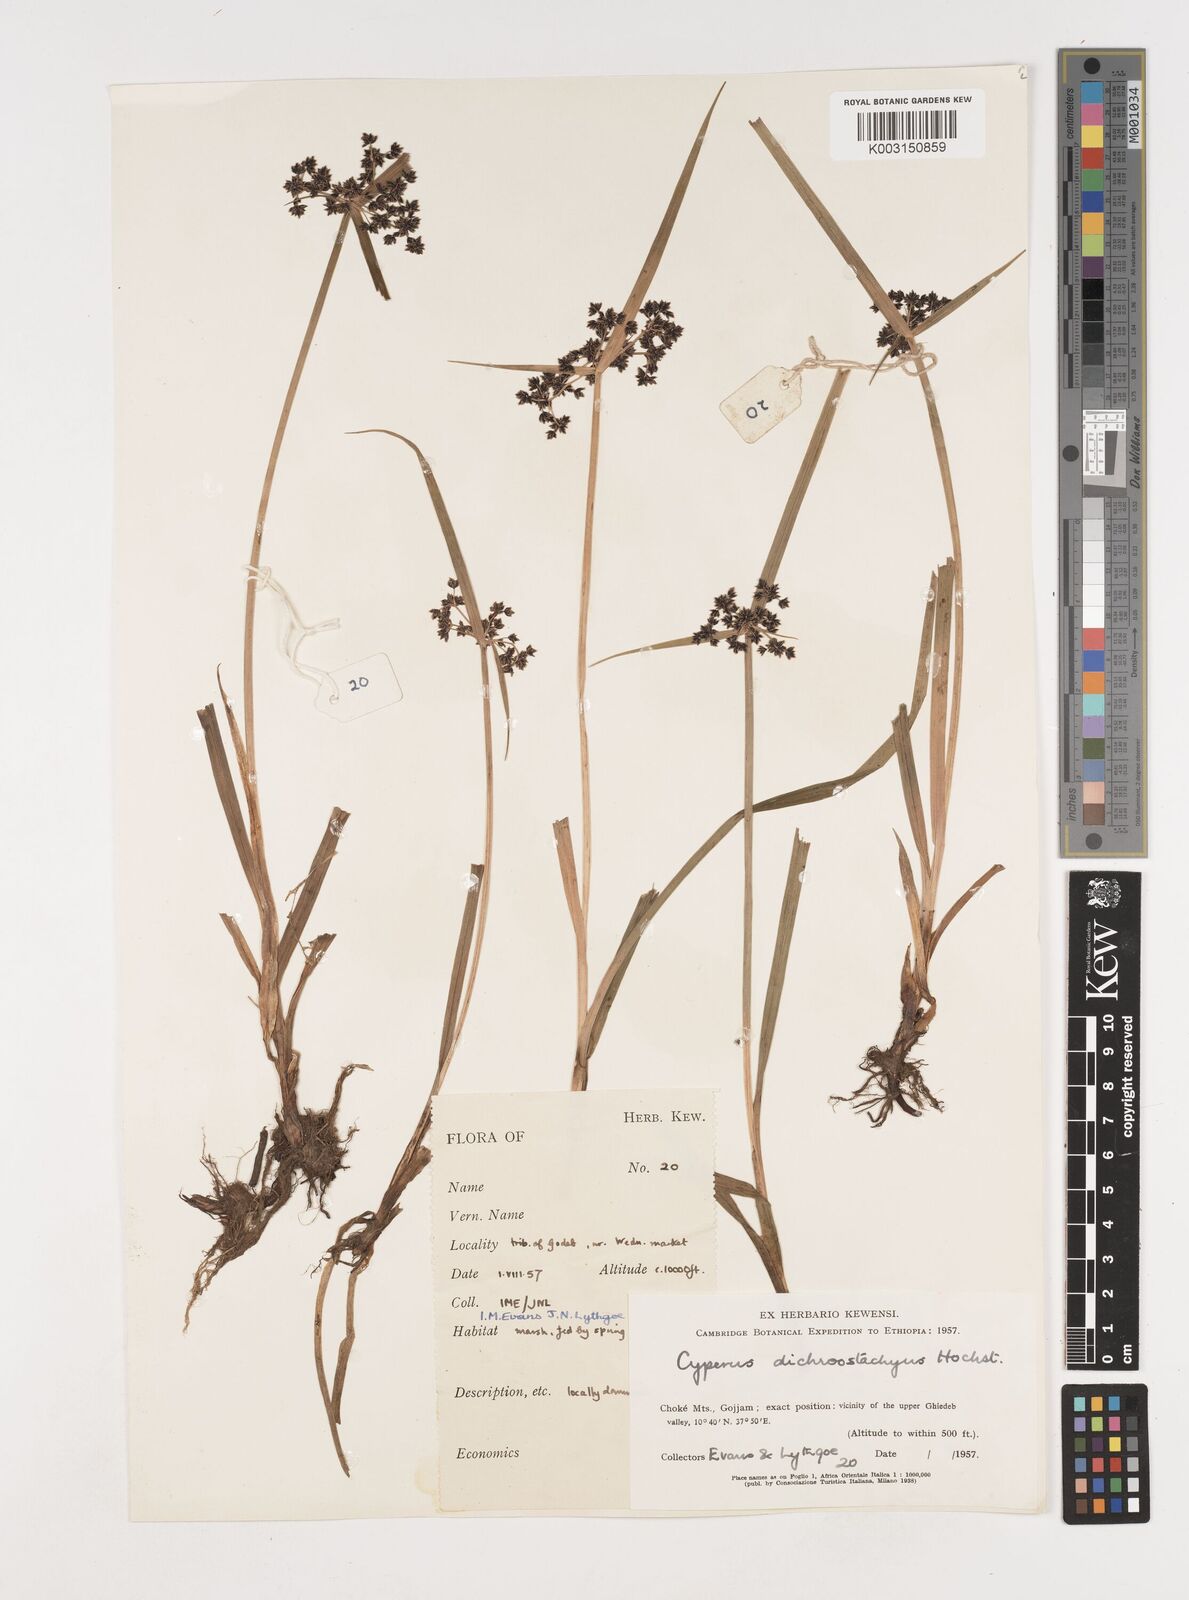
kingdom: Plantae
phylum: Tracheophyta
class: Liliopsida
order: Poales
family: Cyperaceae
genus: Cyperus
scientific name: Cyperus dichrostachyus
